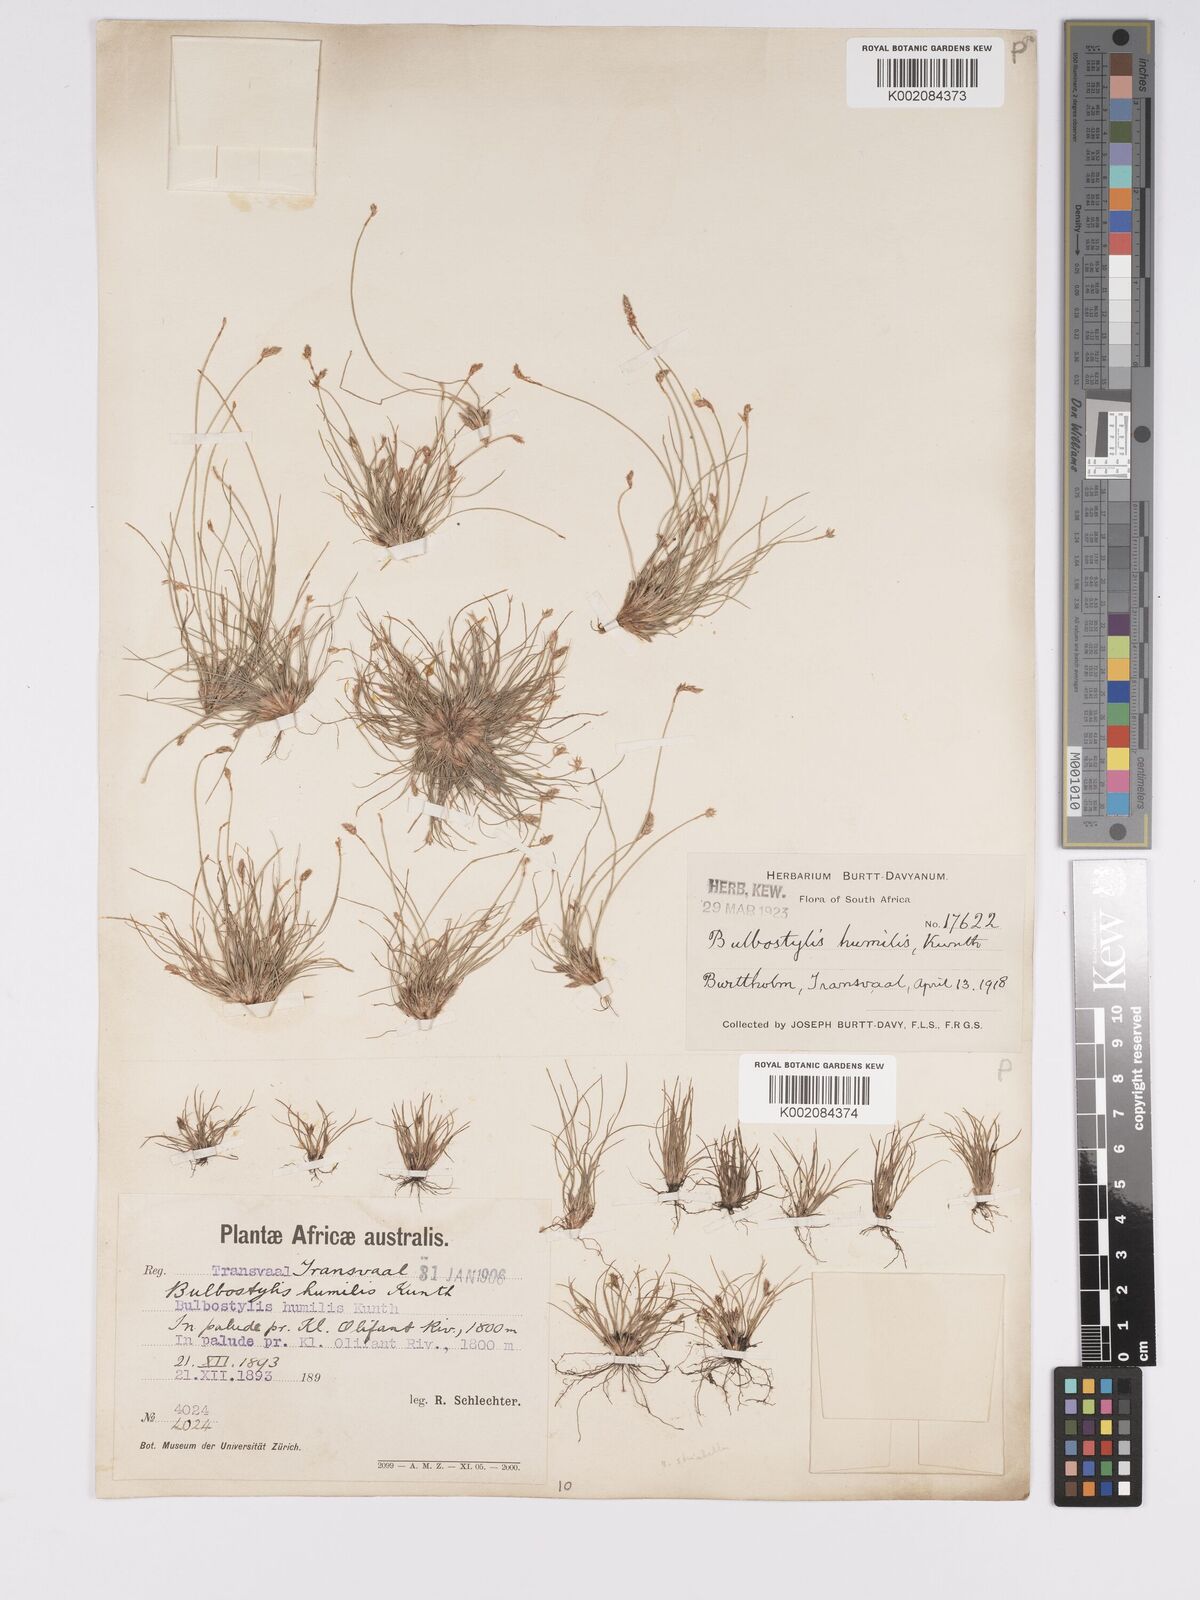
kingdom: Plantae
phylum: Tracheophyta
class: Liliopsida
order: Poales
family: Cyperaceae
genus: Bulbostylis
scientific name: Bulbostylis humilis
